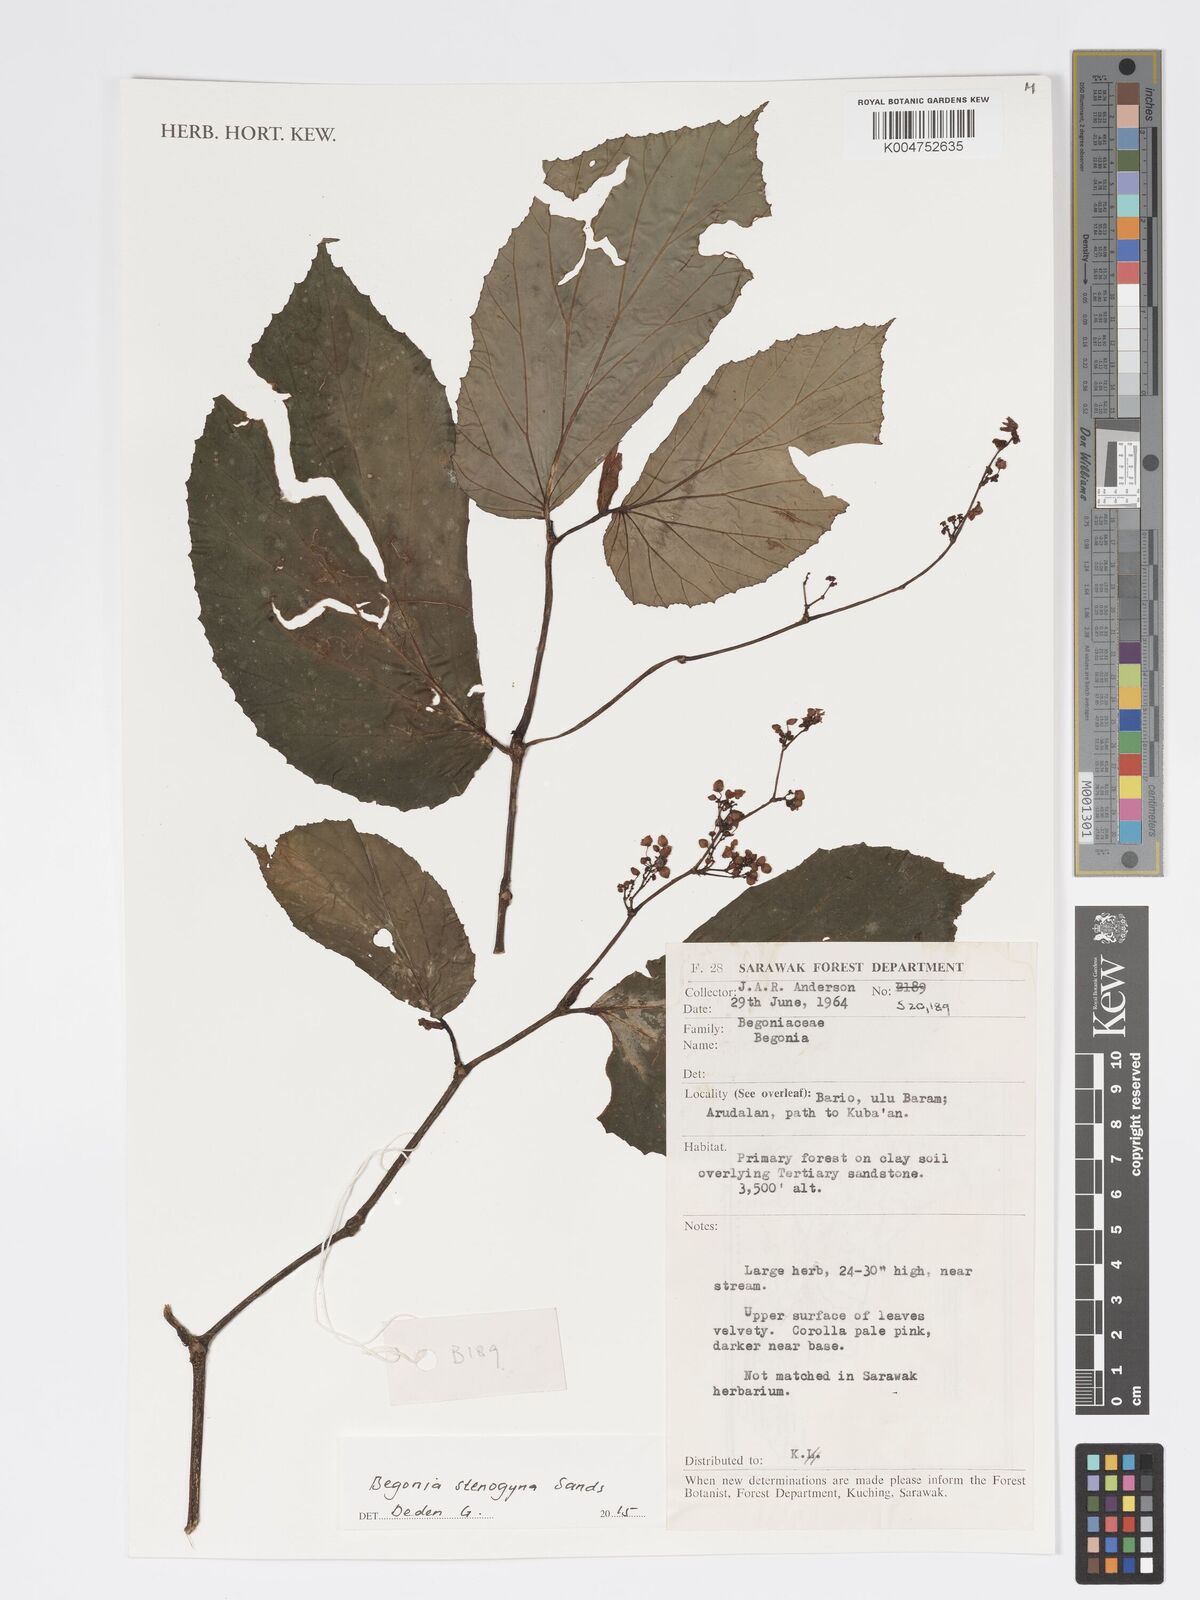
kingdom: Plantae
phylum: Tracheophyta
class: Magnoliopsida
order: Cucurbitales
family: Begoniaceae
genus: Begonia
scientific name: Begonia stenogyna
